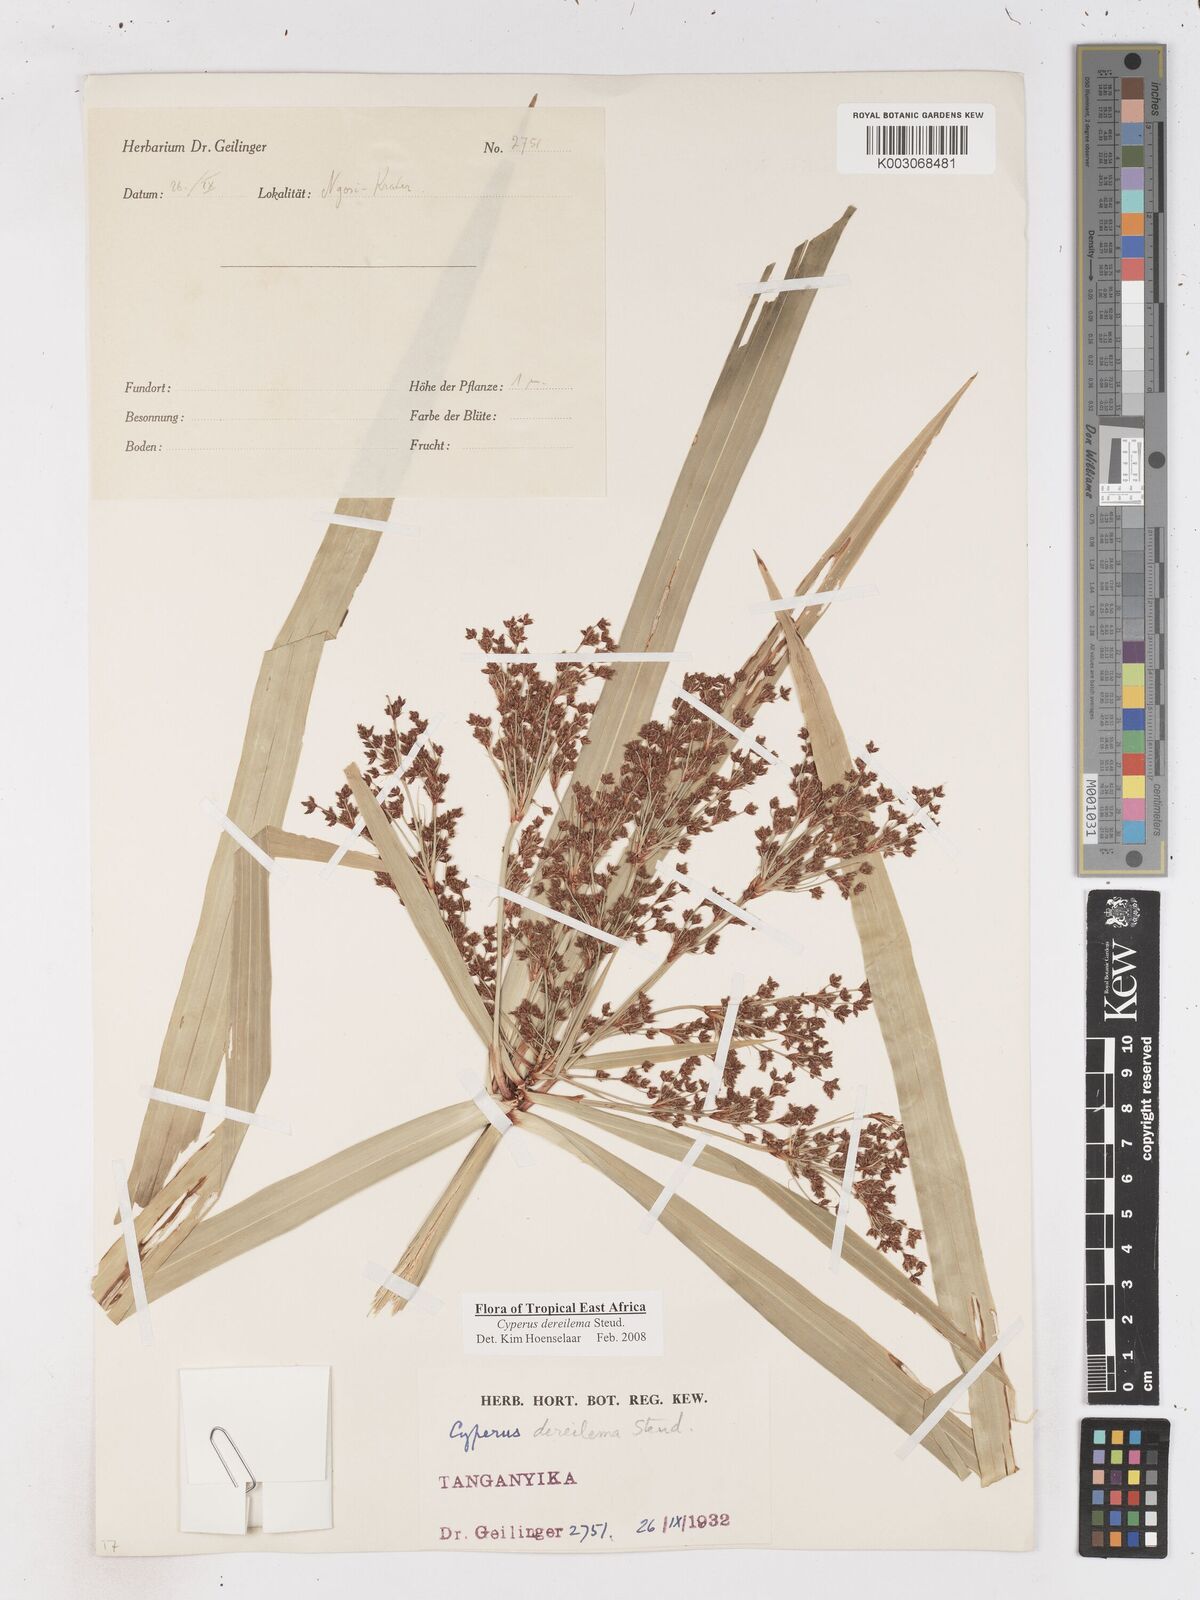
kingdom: Plantae
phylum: Tracheophyta
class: Liliopsida
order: Poales
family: Cyperaceae
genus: Cyperus
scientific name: Cyperus derreilema
